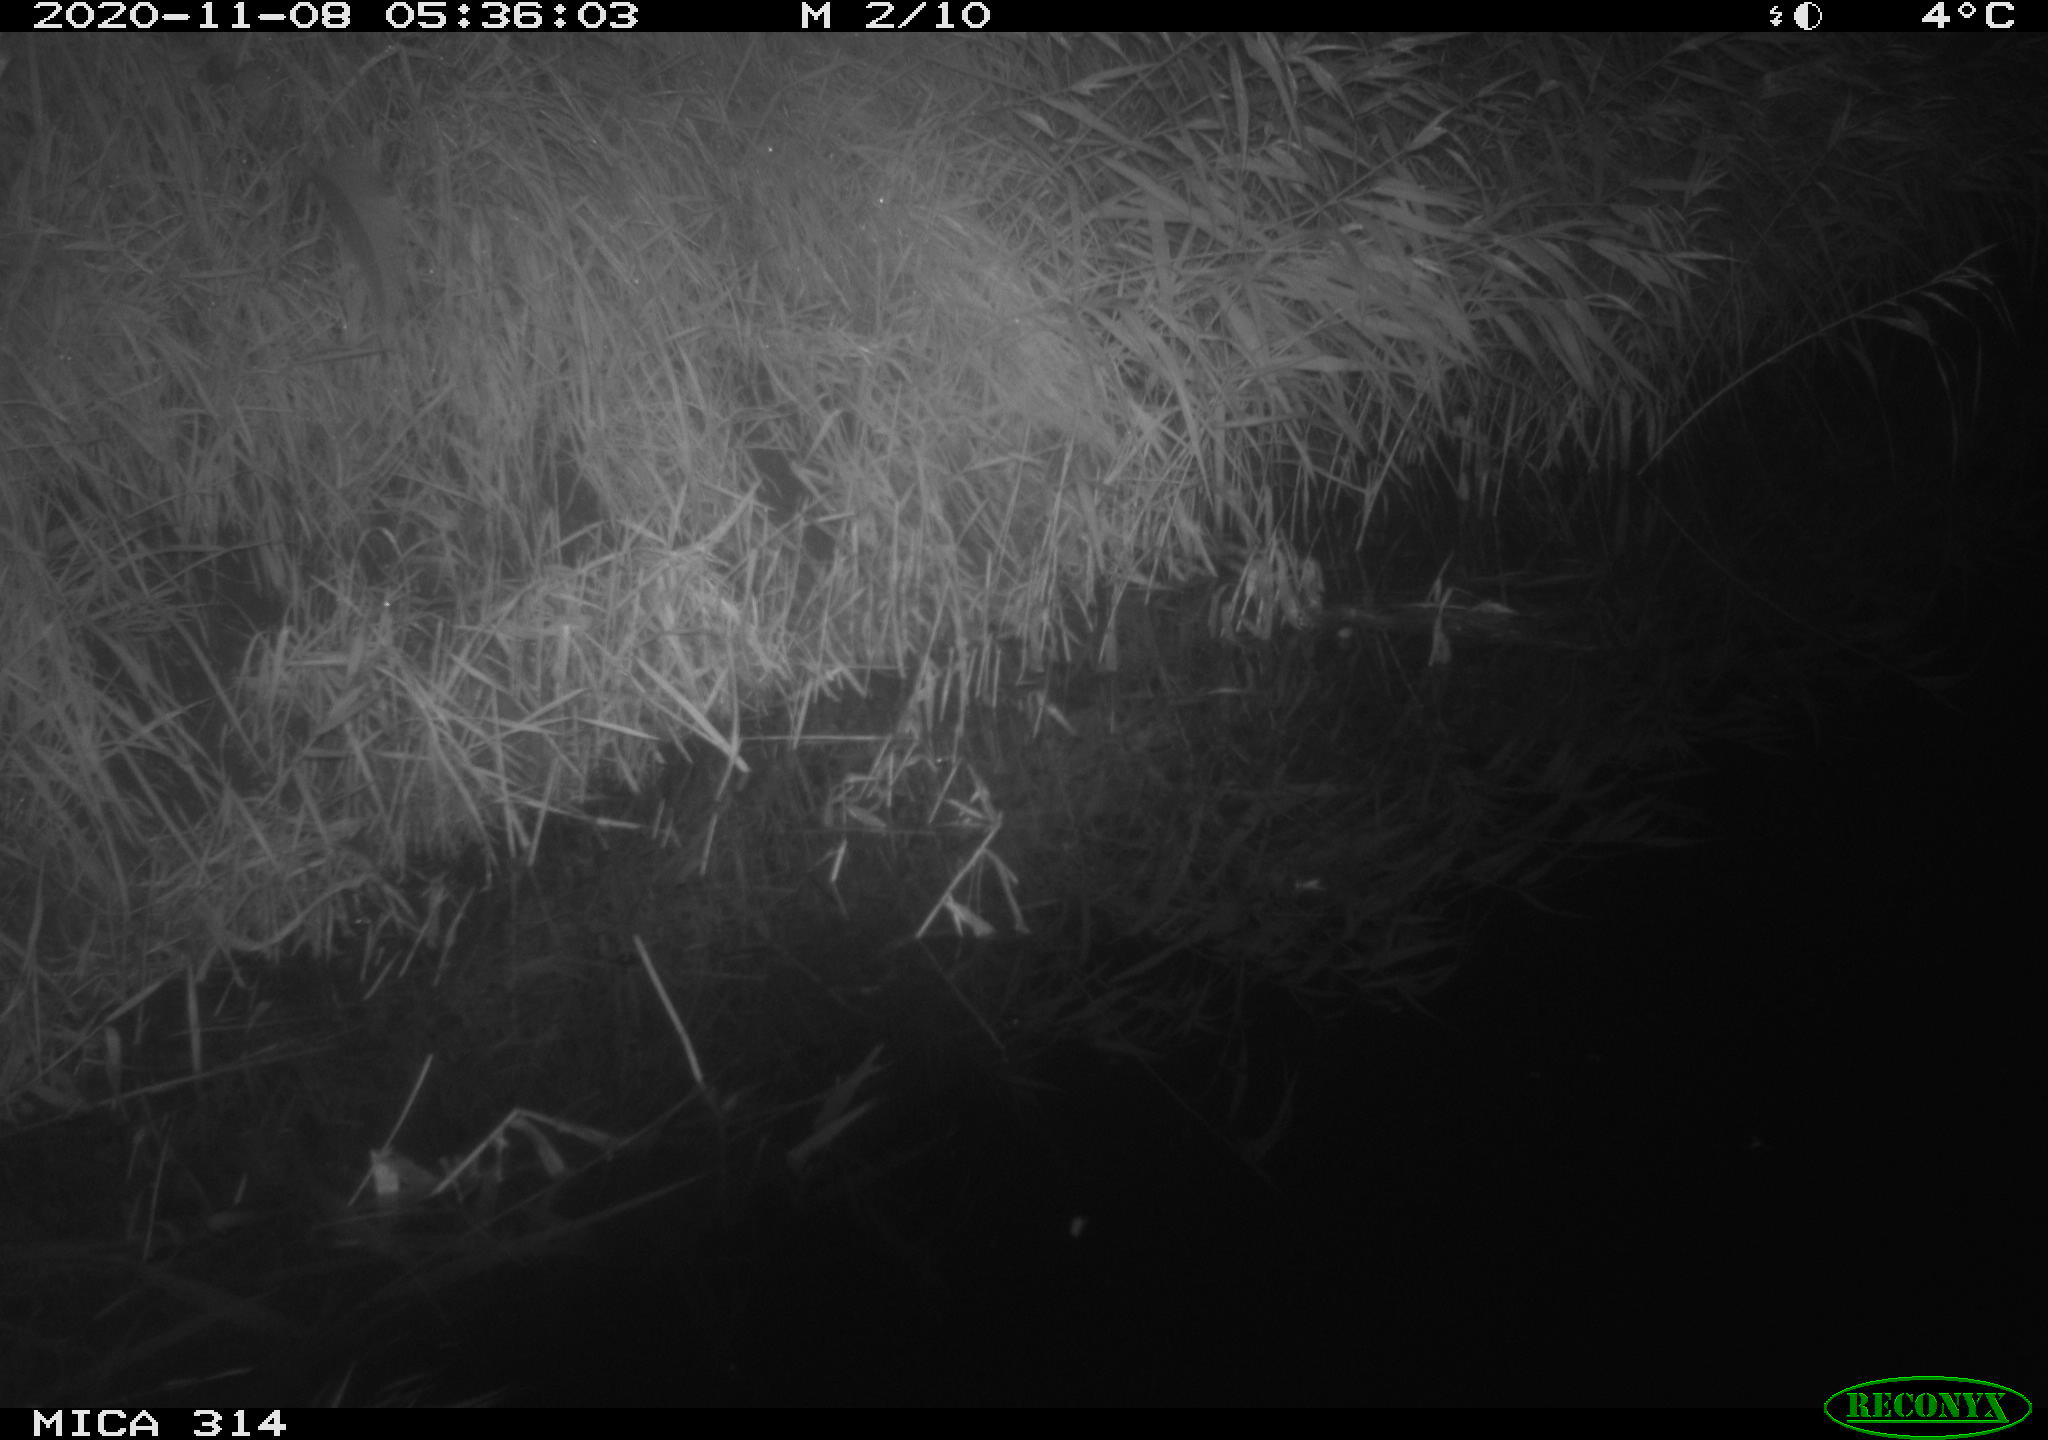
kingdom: Animalia
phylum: Chordata
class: Mammalia
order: Rodentia
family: Muridae
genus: Rattus
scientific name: Rattus norvegicus
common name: Brown rat
